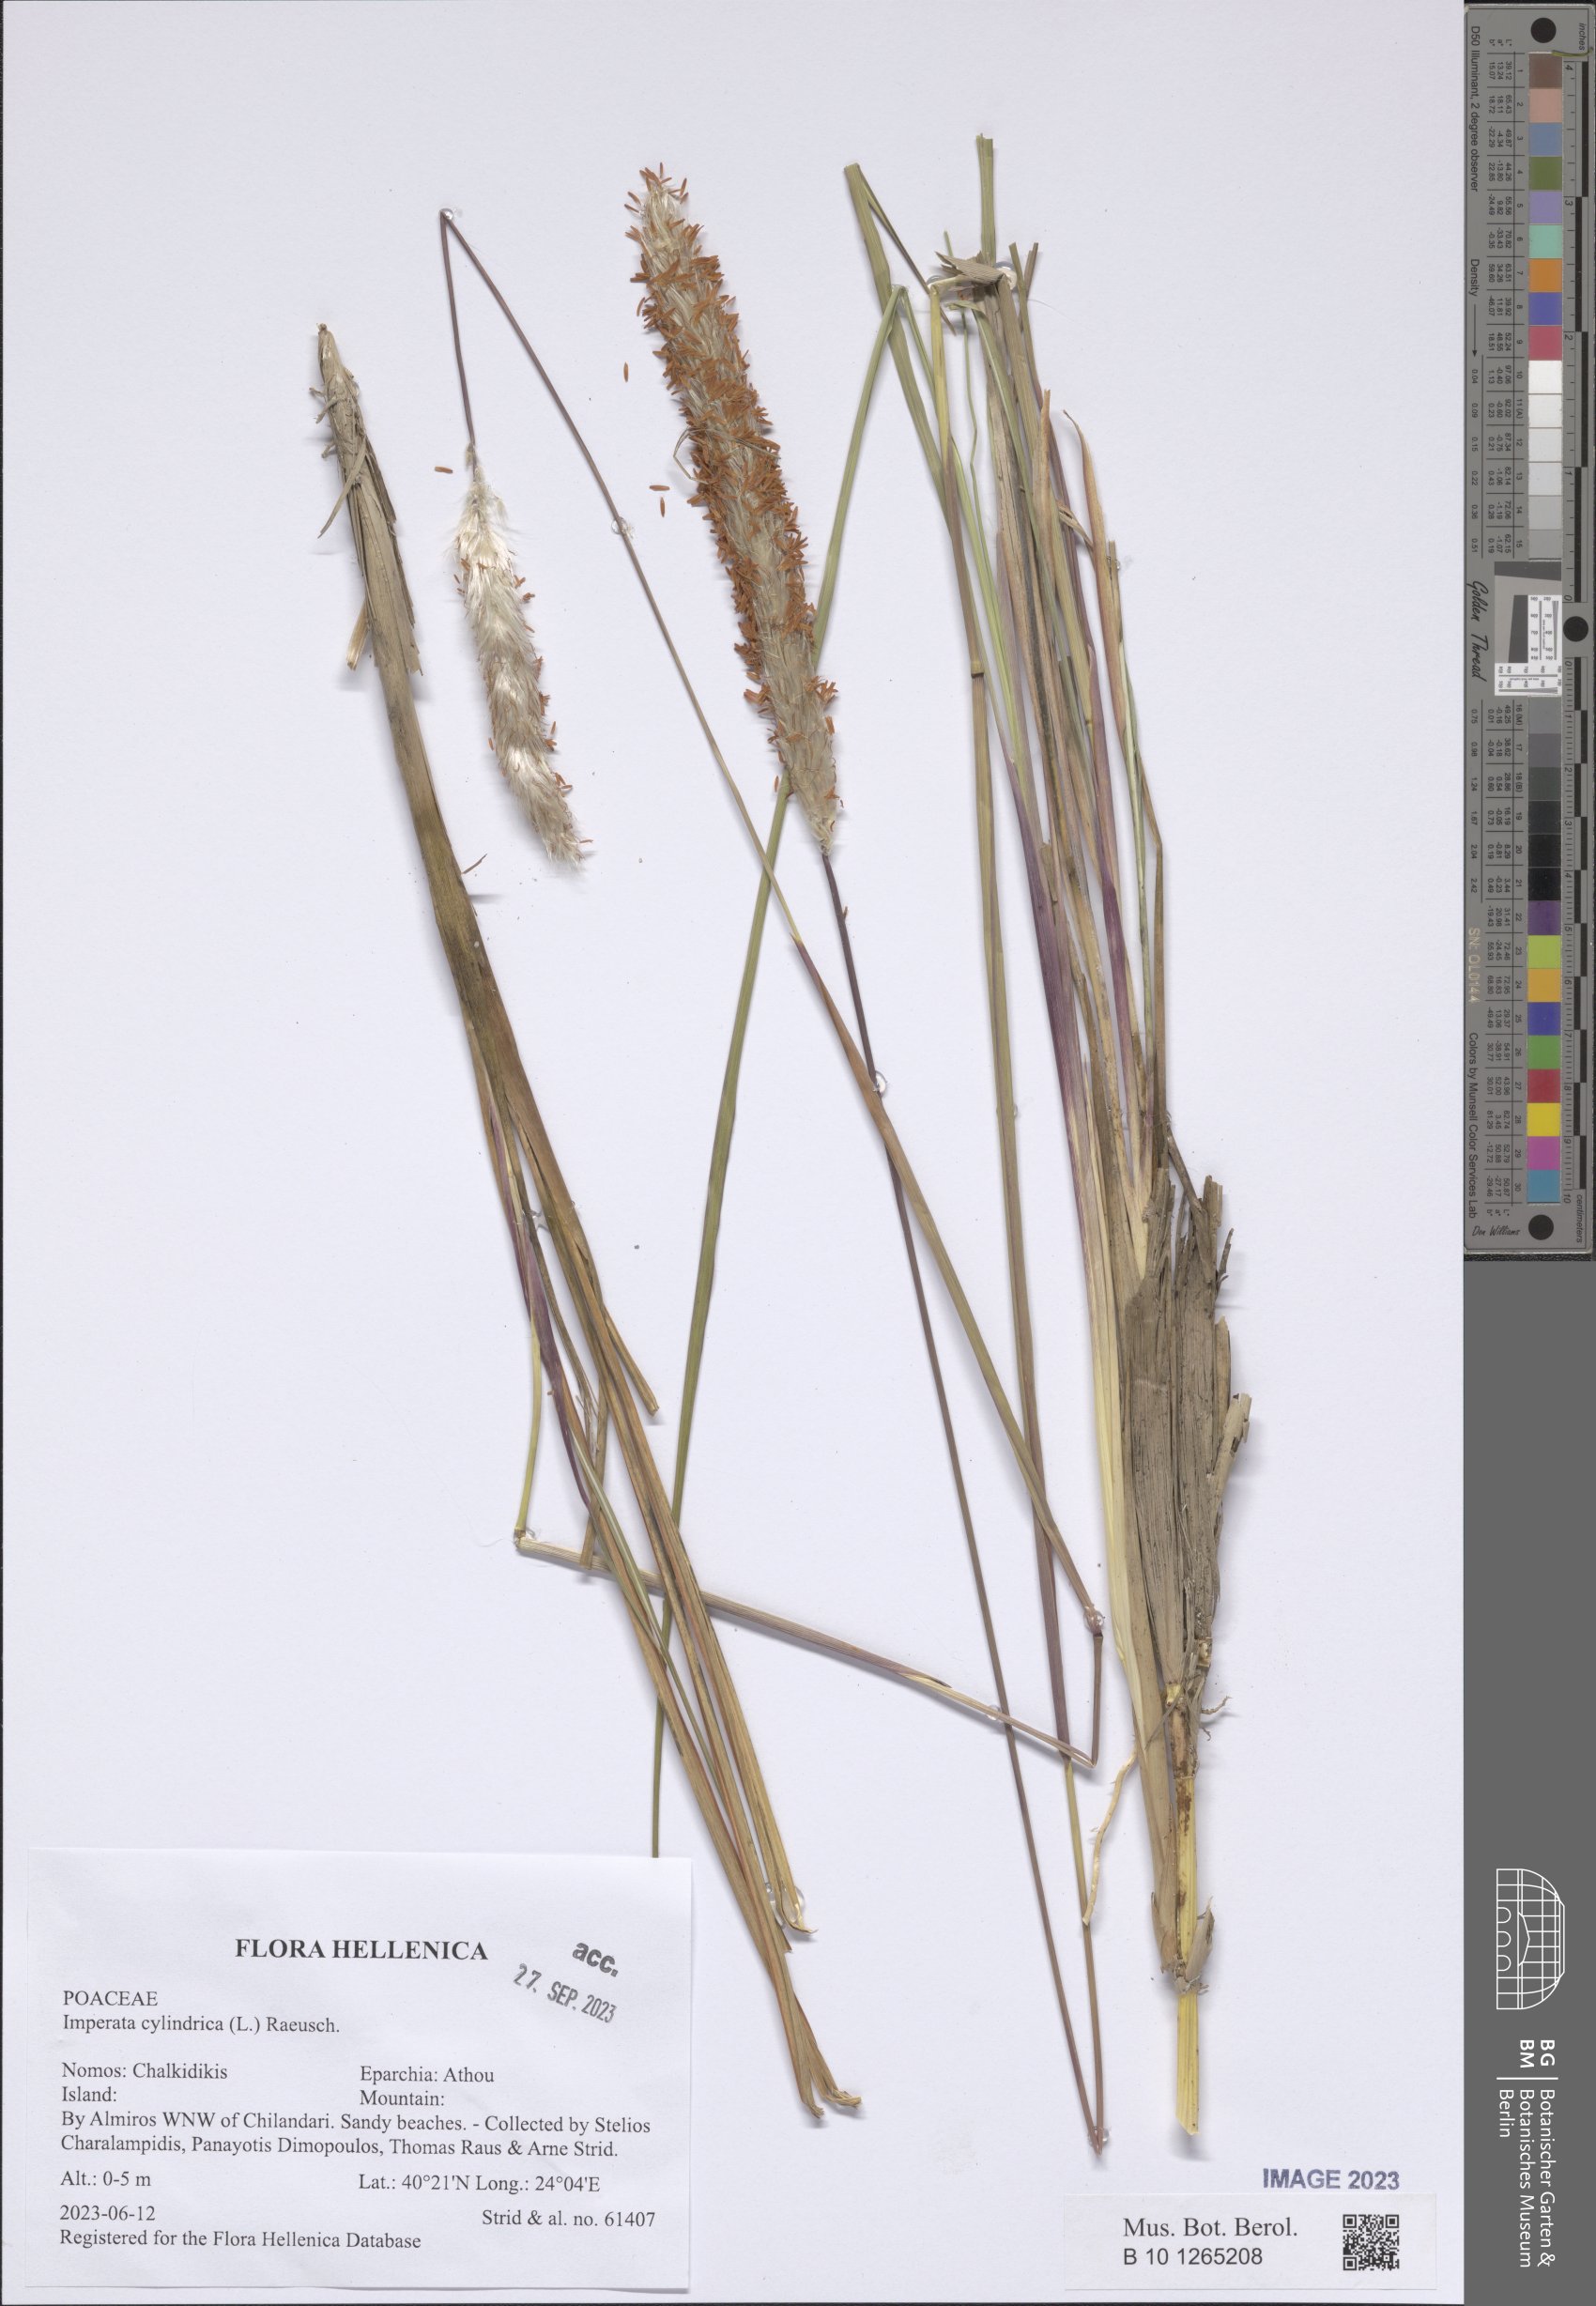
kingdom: Plantae
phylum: Tracheophyta
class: Liliopsida
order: Poales
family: Poaceae
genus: Imperata
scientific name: Imperata cylindrica
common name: Cogongrass
